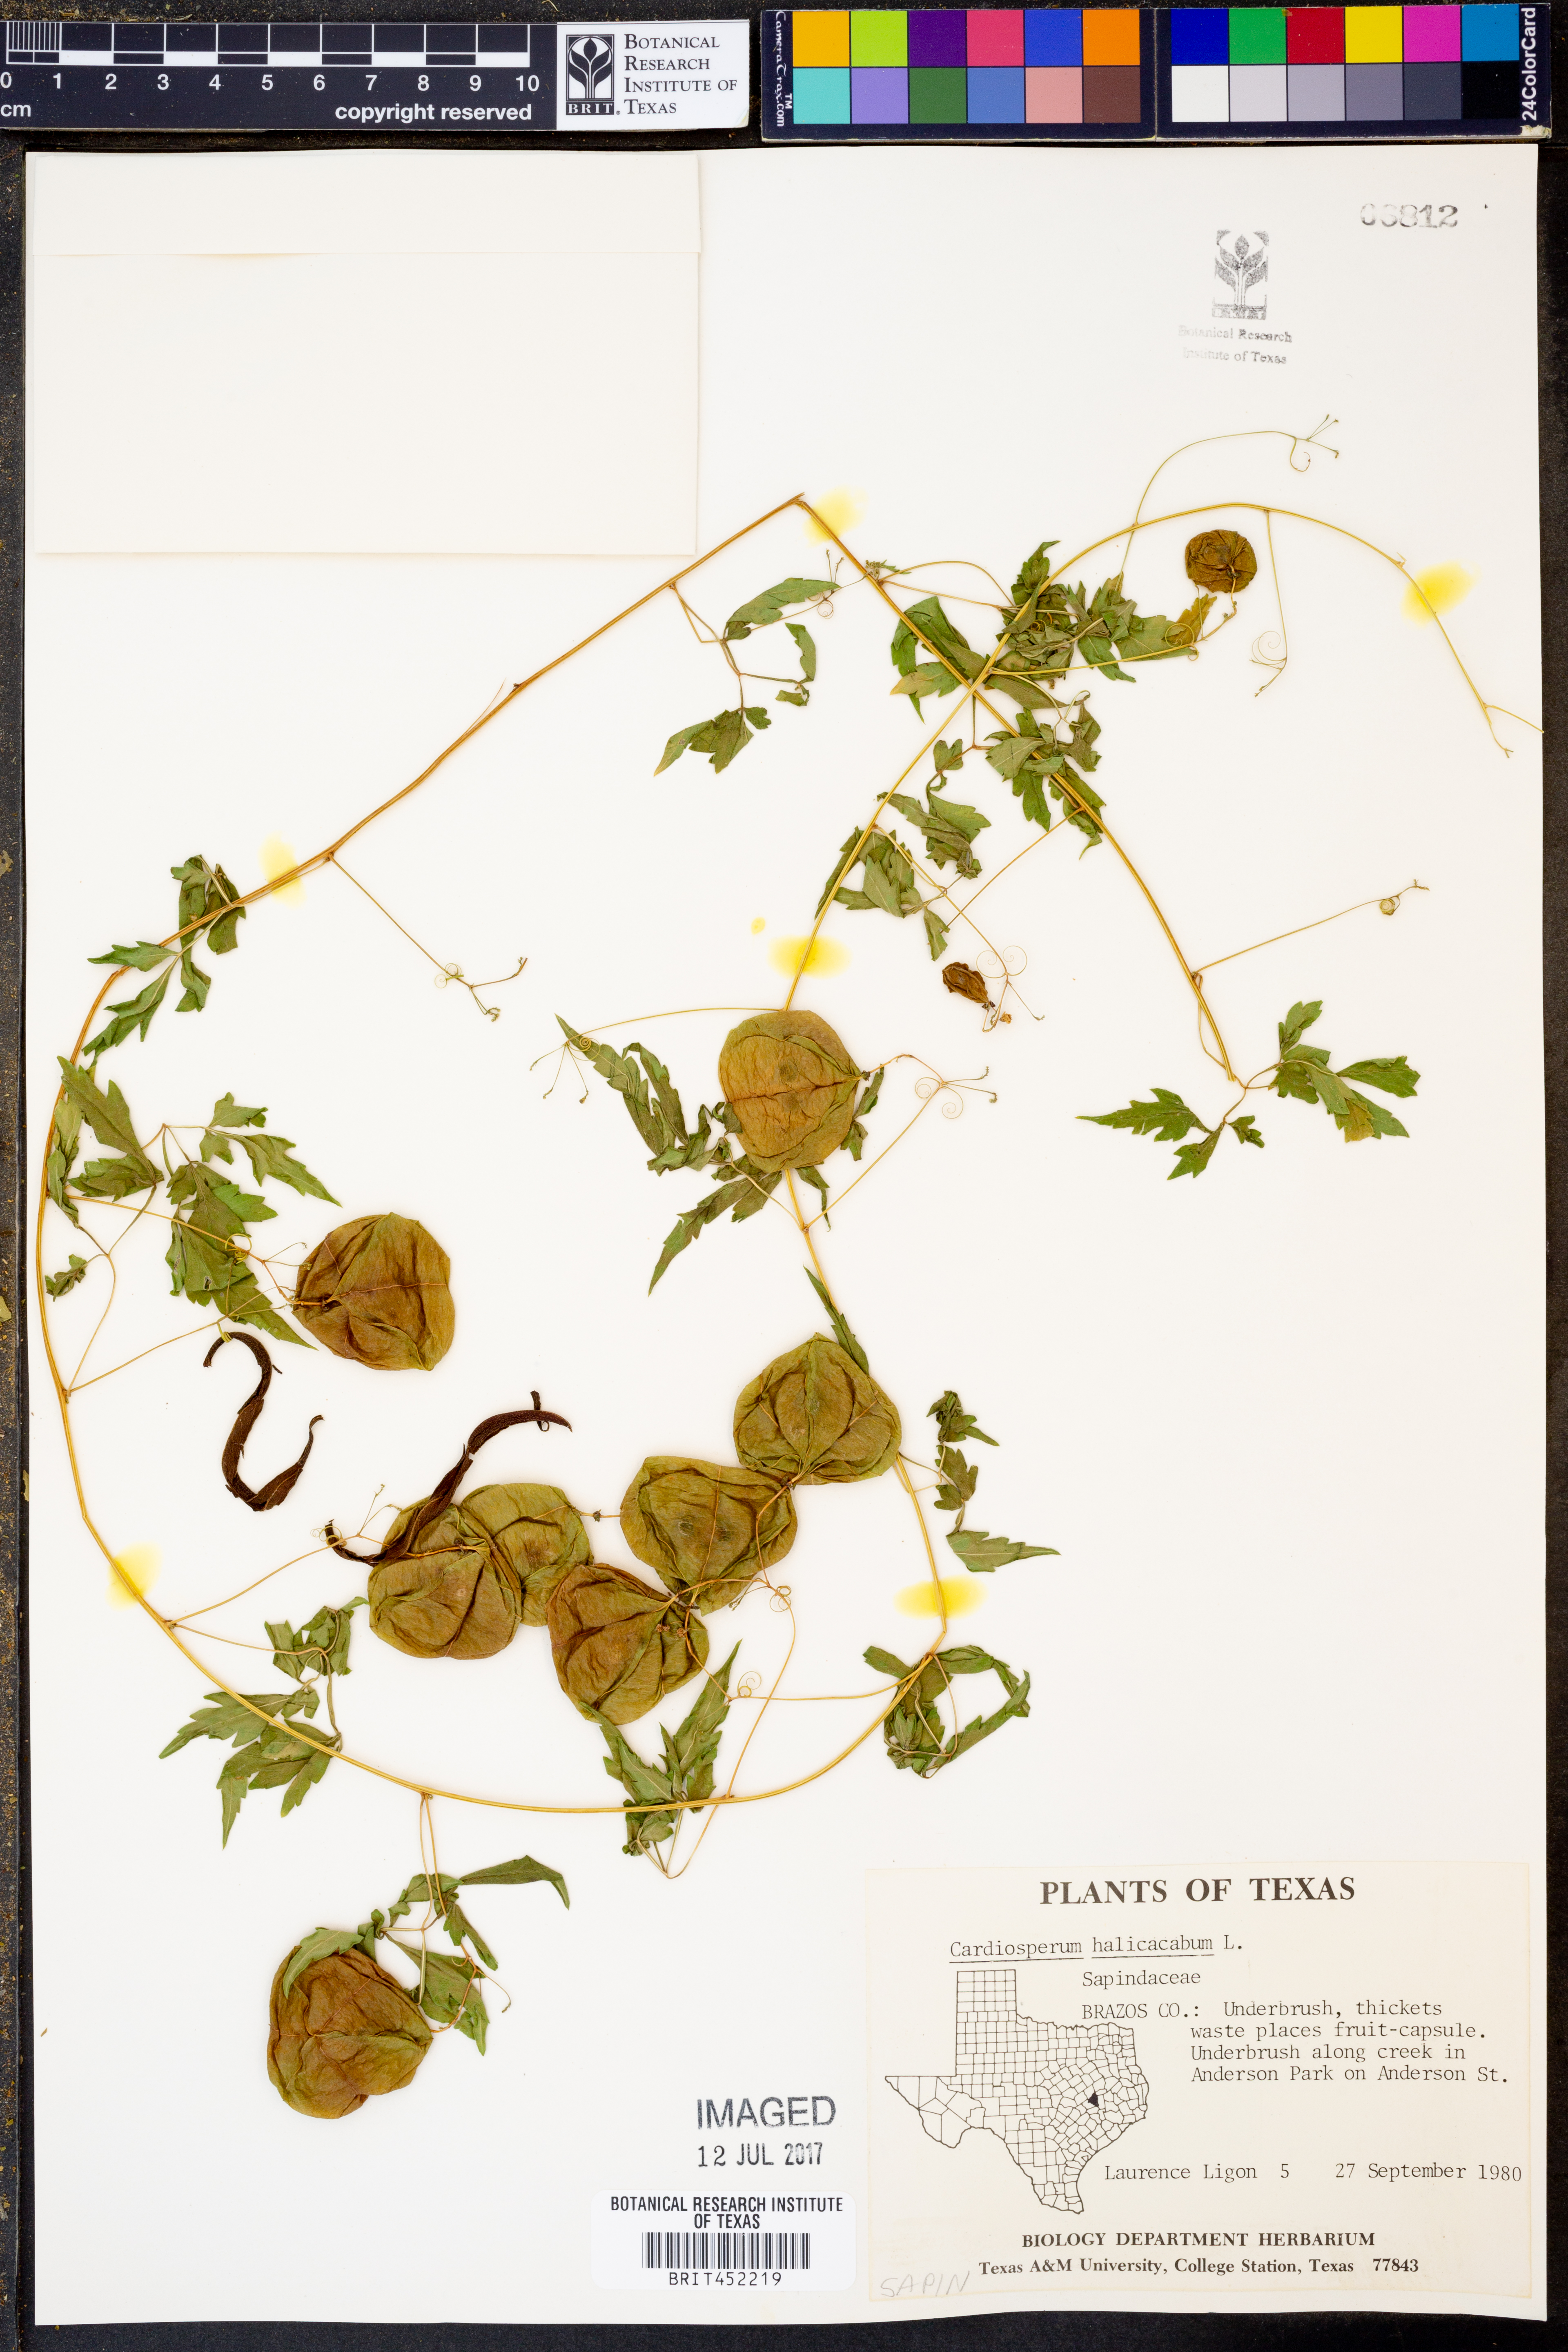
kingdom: Plantae
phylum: Tracheophyta
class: Magnoliopsida
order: Sapindales
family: Sapindaceae
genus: Cardiospermum
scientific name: Cardiospermum halicacabum
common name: Balloon vine
